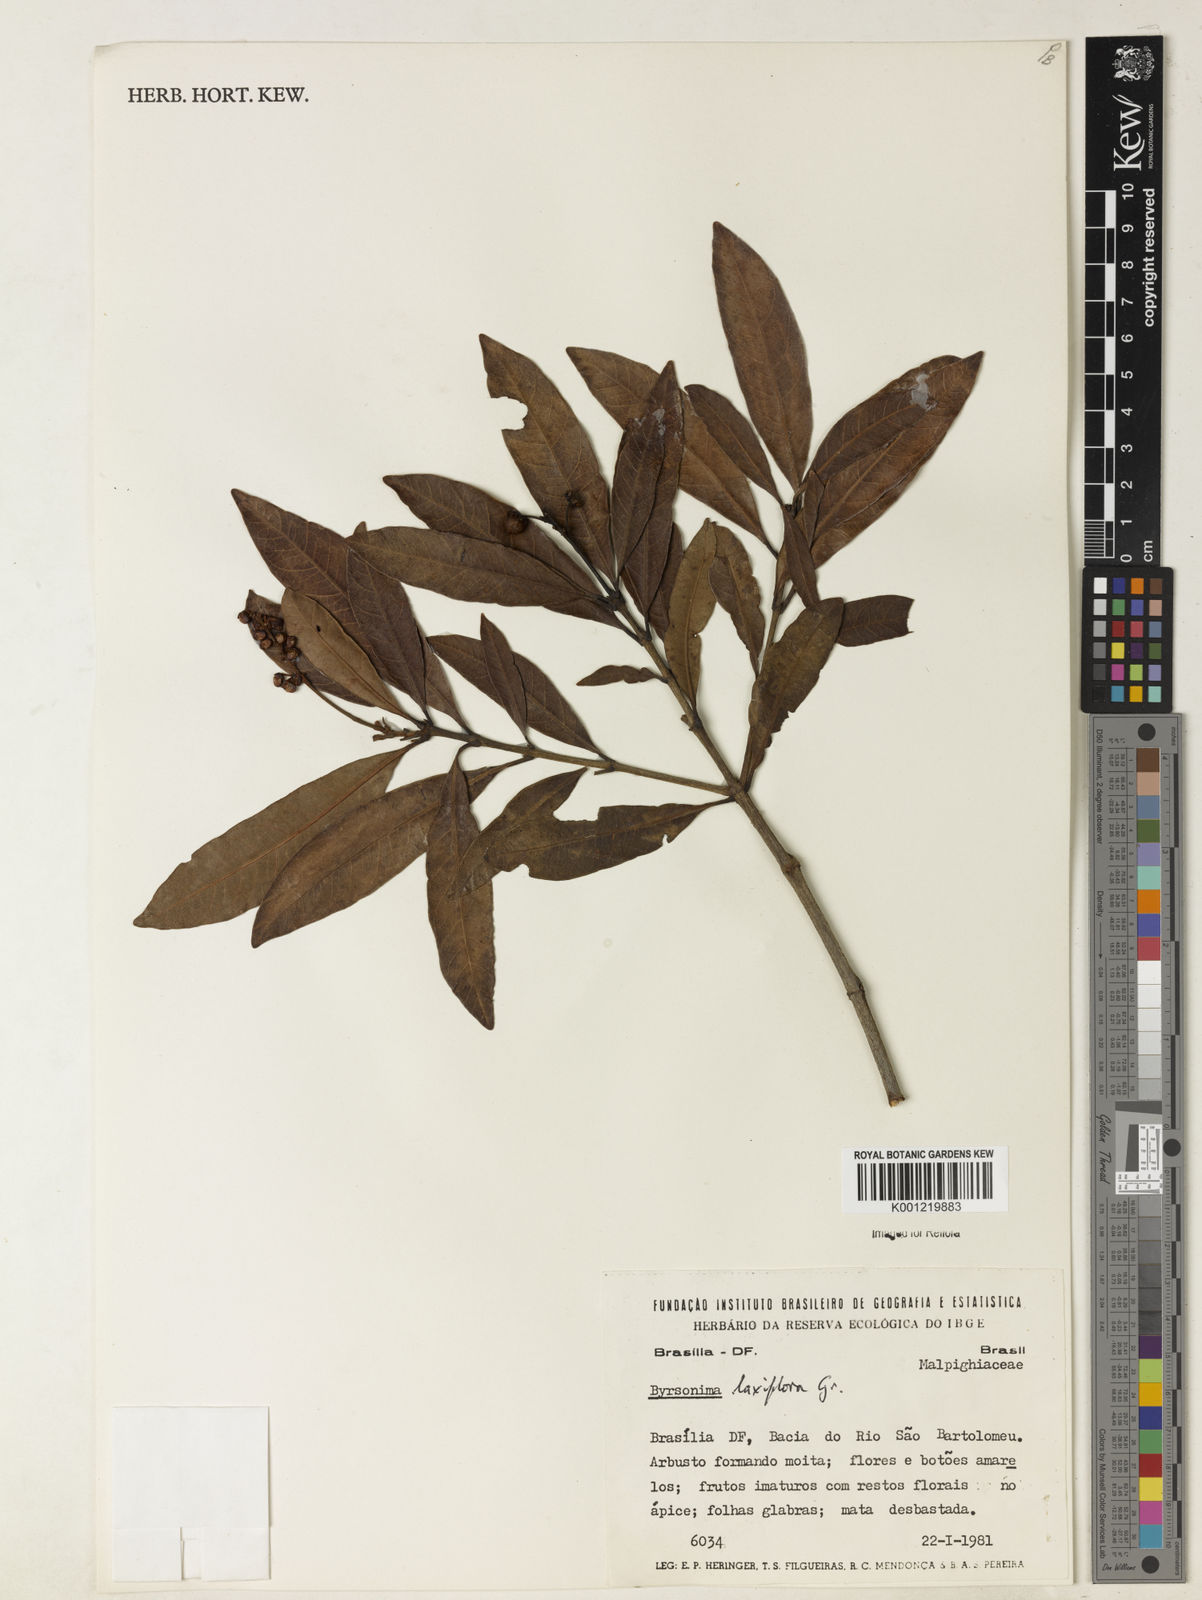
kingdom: Plantae
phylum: Tracheophyta
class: Magnoliopsida
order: Malpighiales
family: Malpighiaceae
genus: Byrsonima
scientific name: Byrsonima laxiflora
